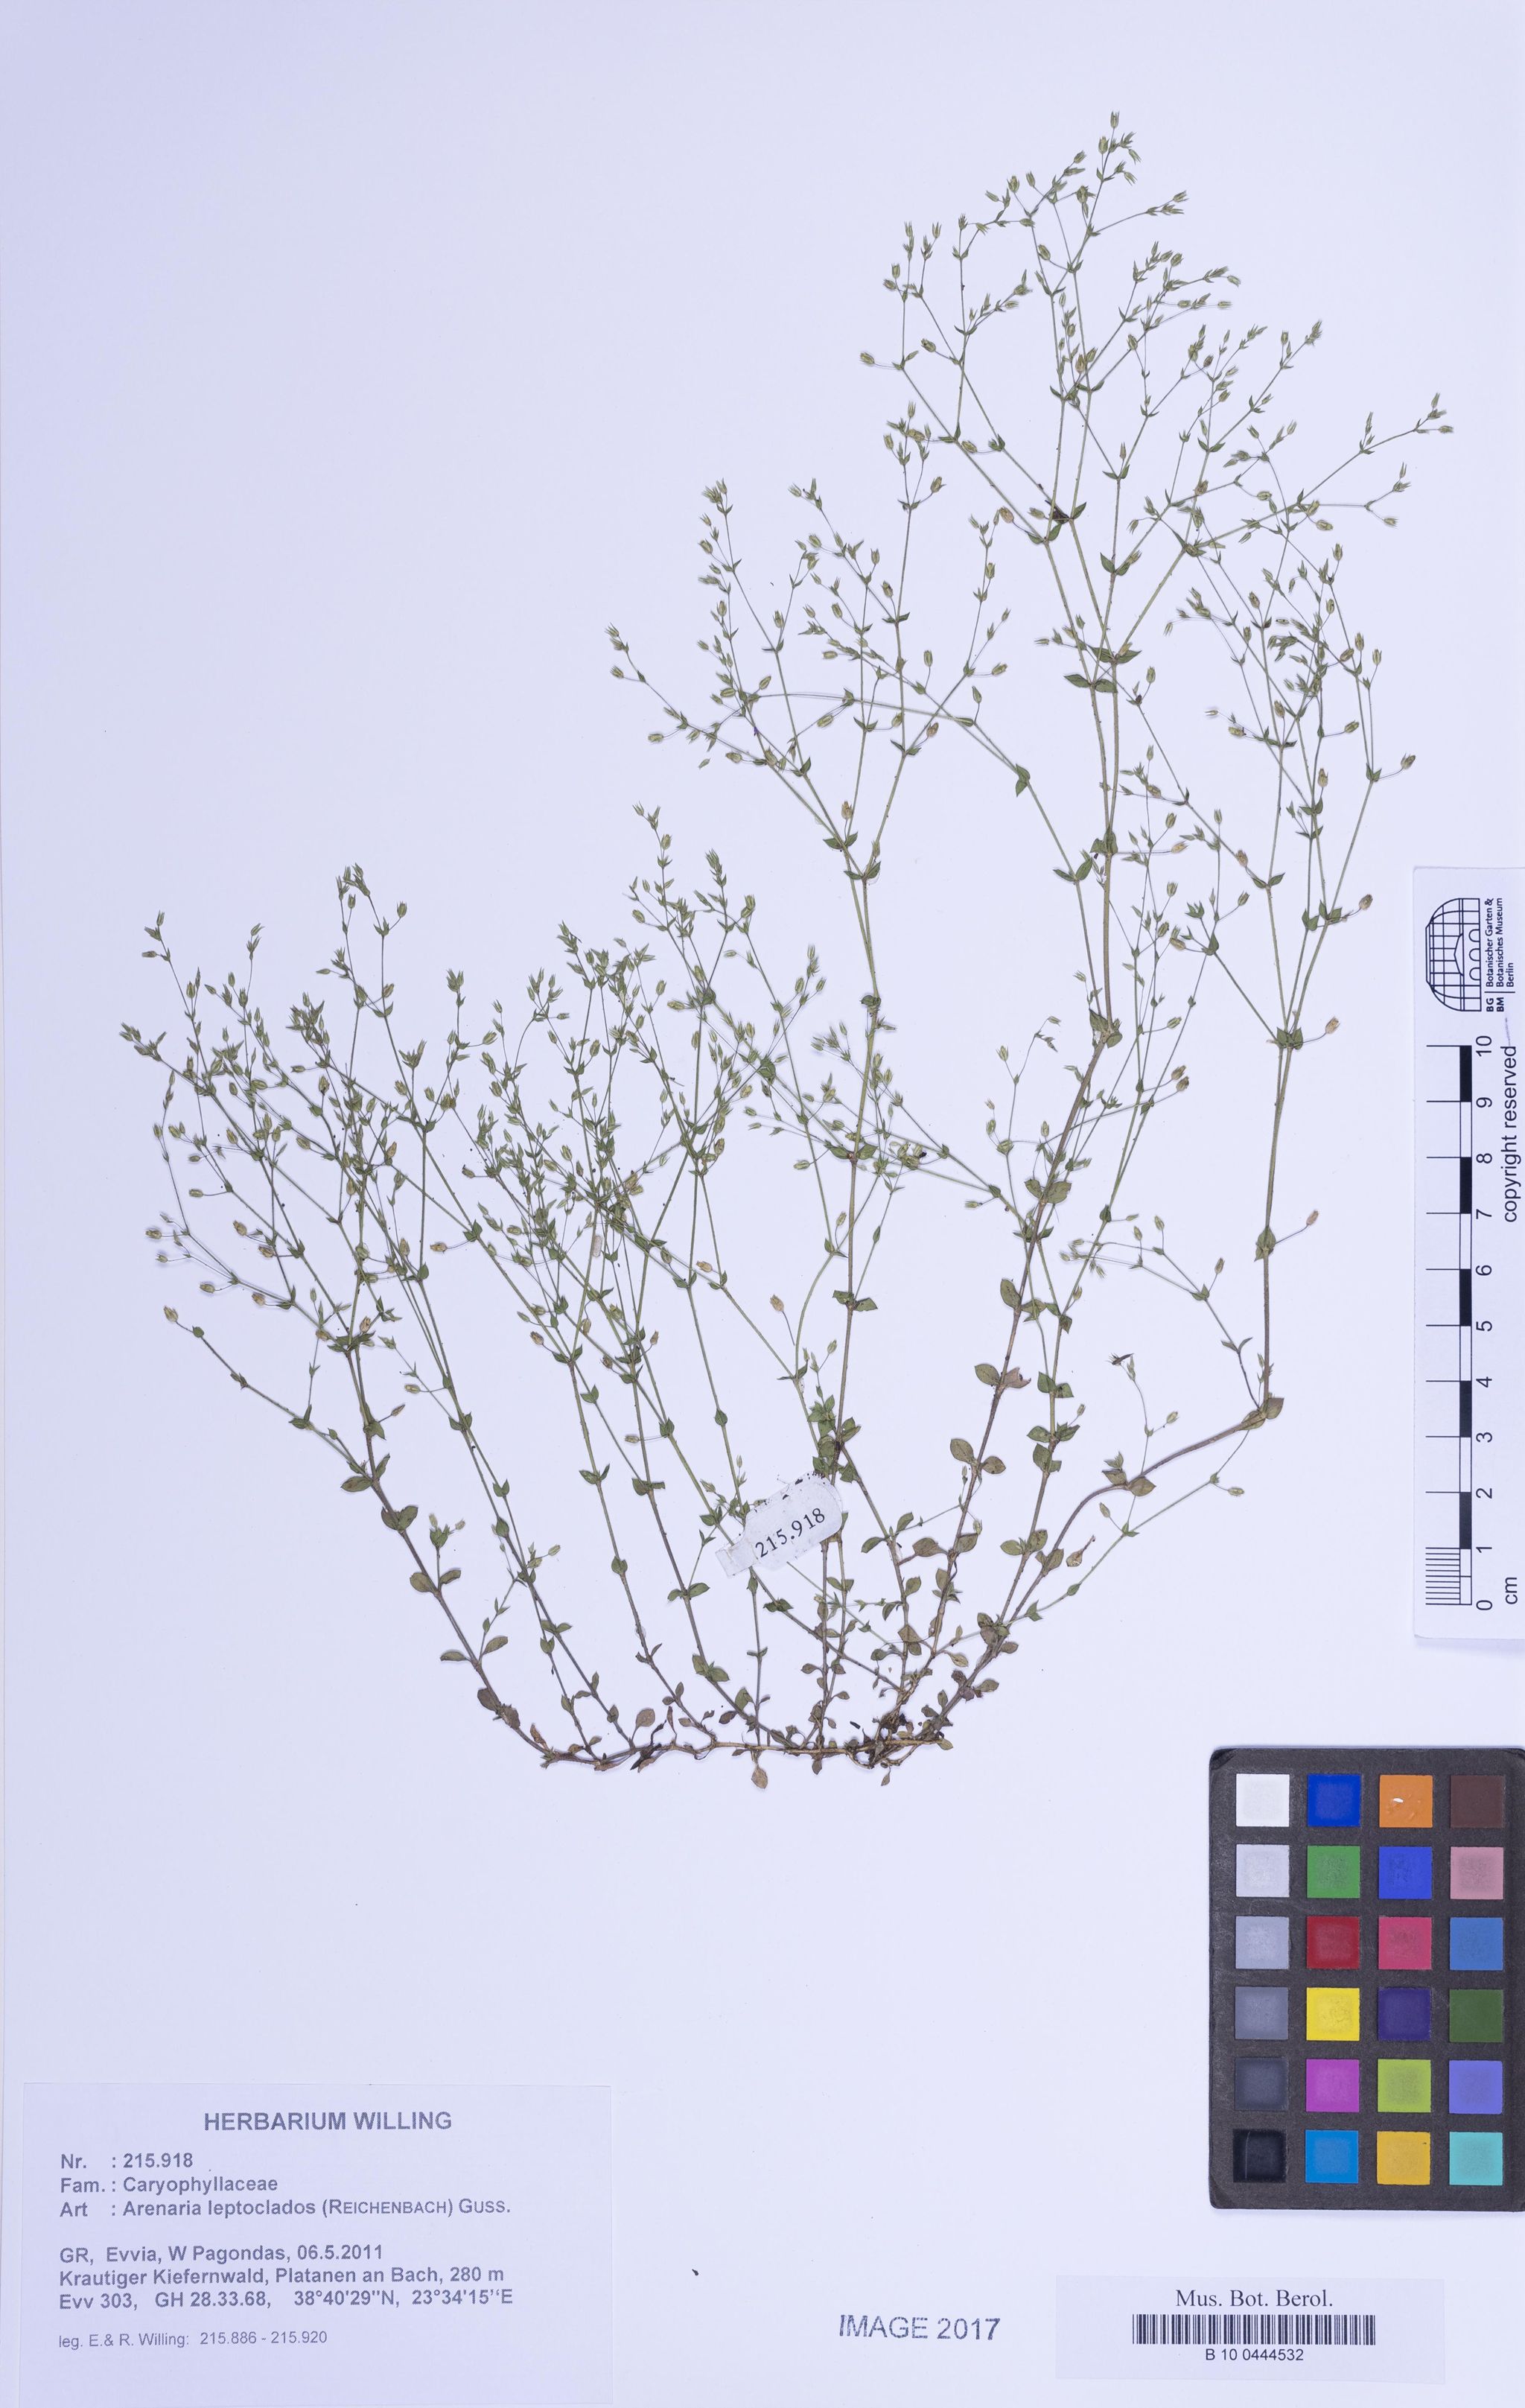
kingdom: Plantae
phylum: Tracheophyta
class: Magnoliopsida
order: Caryophyllales
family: Caryophyllaceae
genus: Arenaria
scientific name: Arenaria leptoclados
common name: Thyme-leaved sandwort
